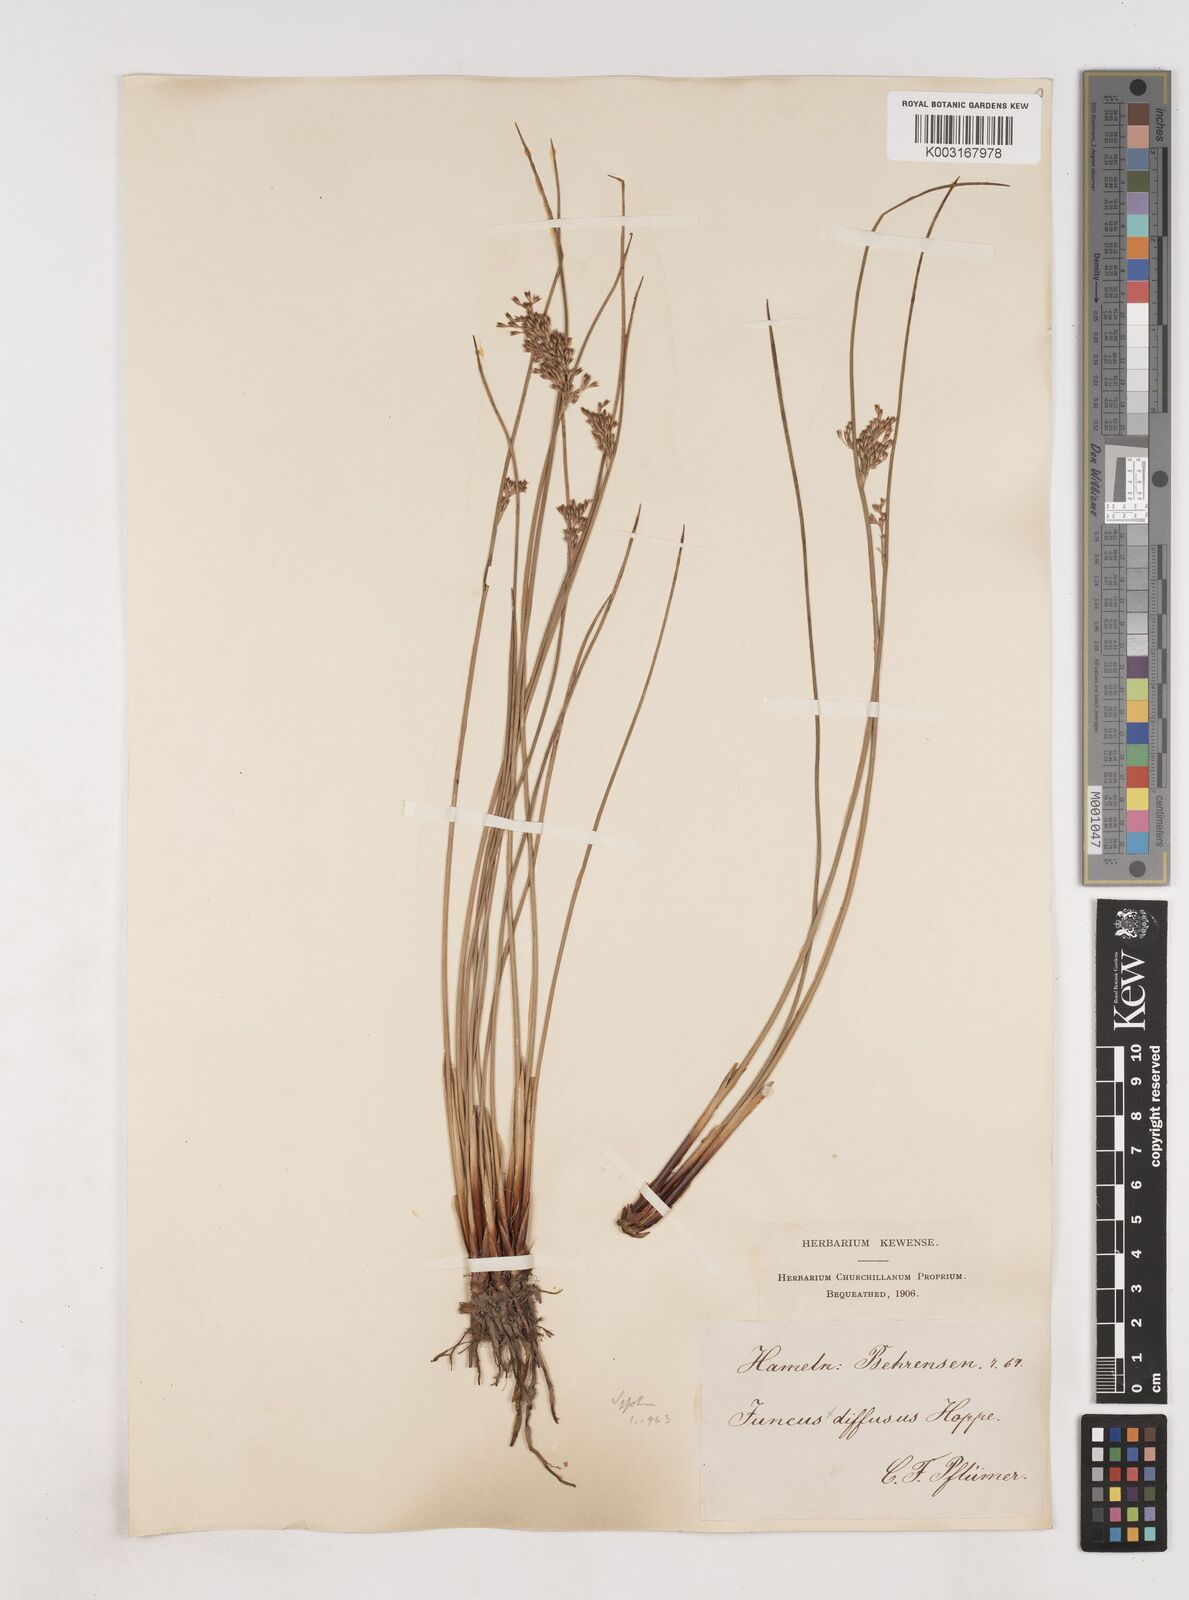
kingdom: Plantae
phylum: Tracheophyta
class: Liliopsida
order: Poales
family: Juncaceae
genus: Juncus
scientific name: Juncus effusus
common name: Soft rush
